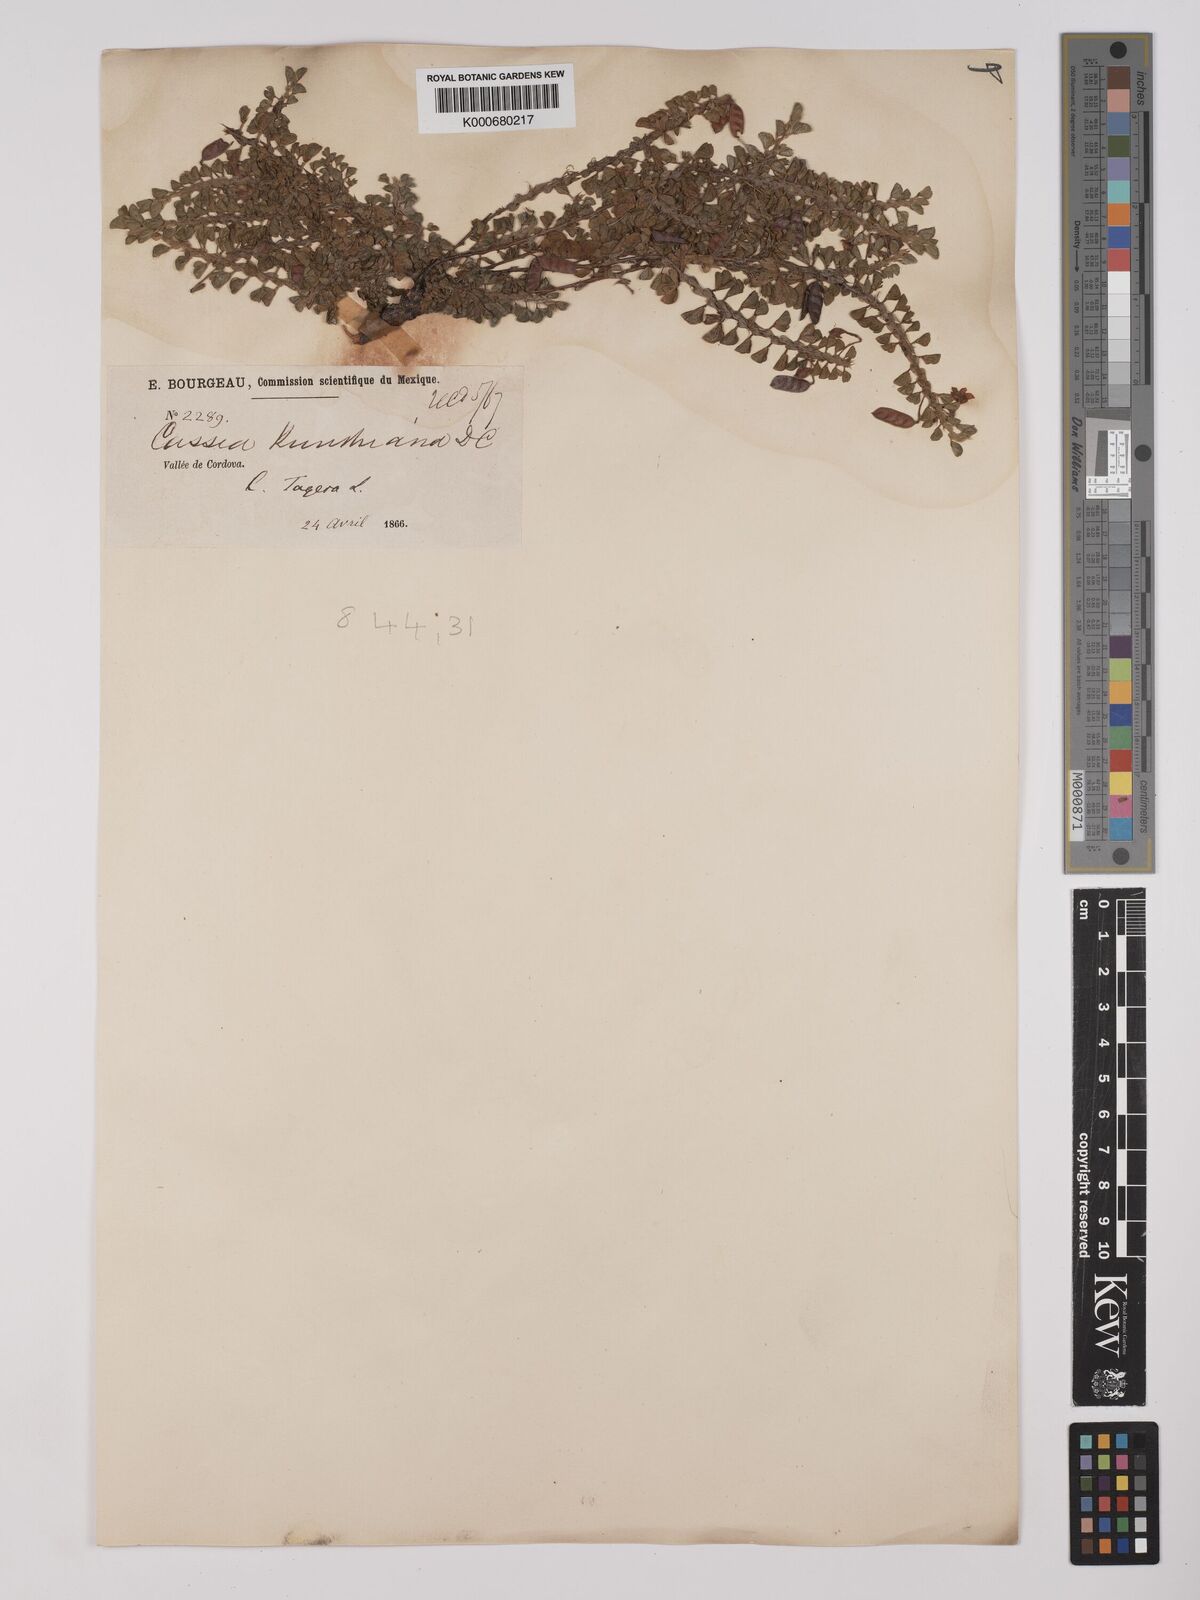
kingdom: Plantae
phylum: Tracheophyta
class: Magnoliopsida
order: Fabales
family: Fabaceae
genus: Chamaecrista
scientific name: Chamaecrista kunthiana
